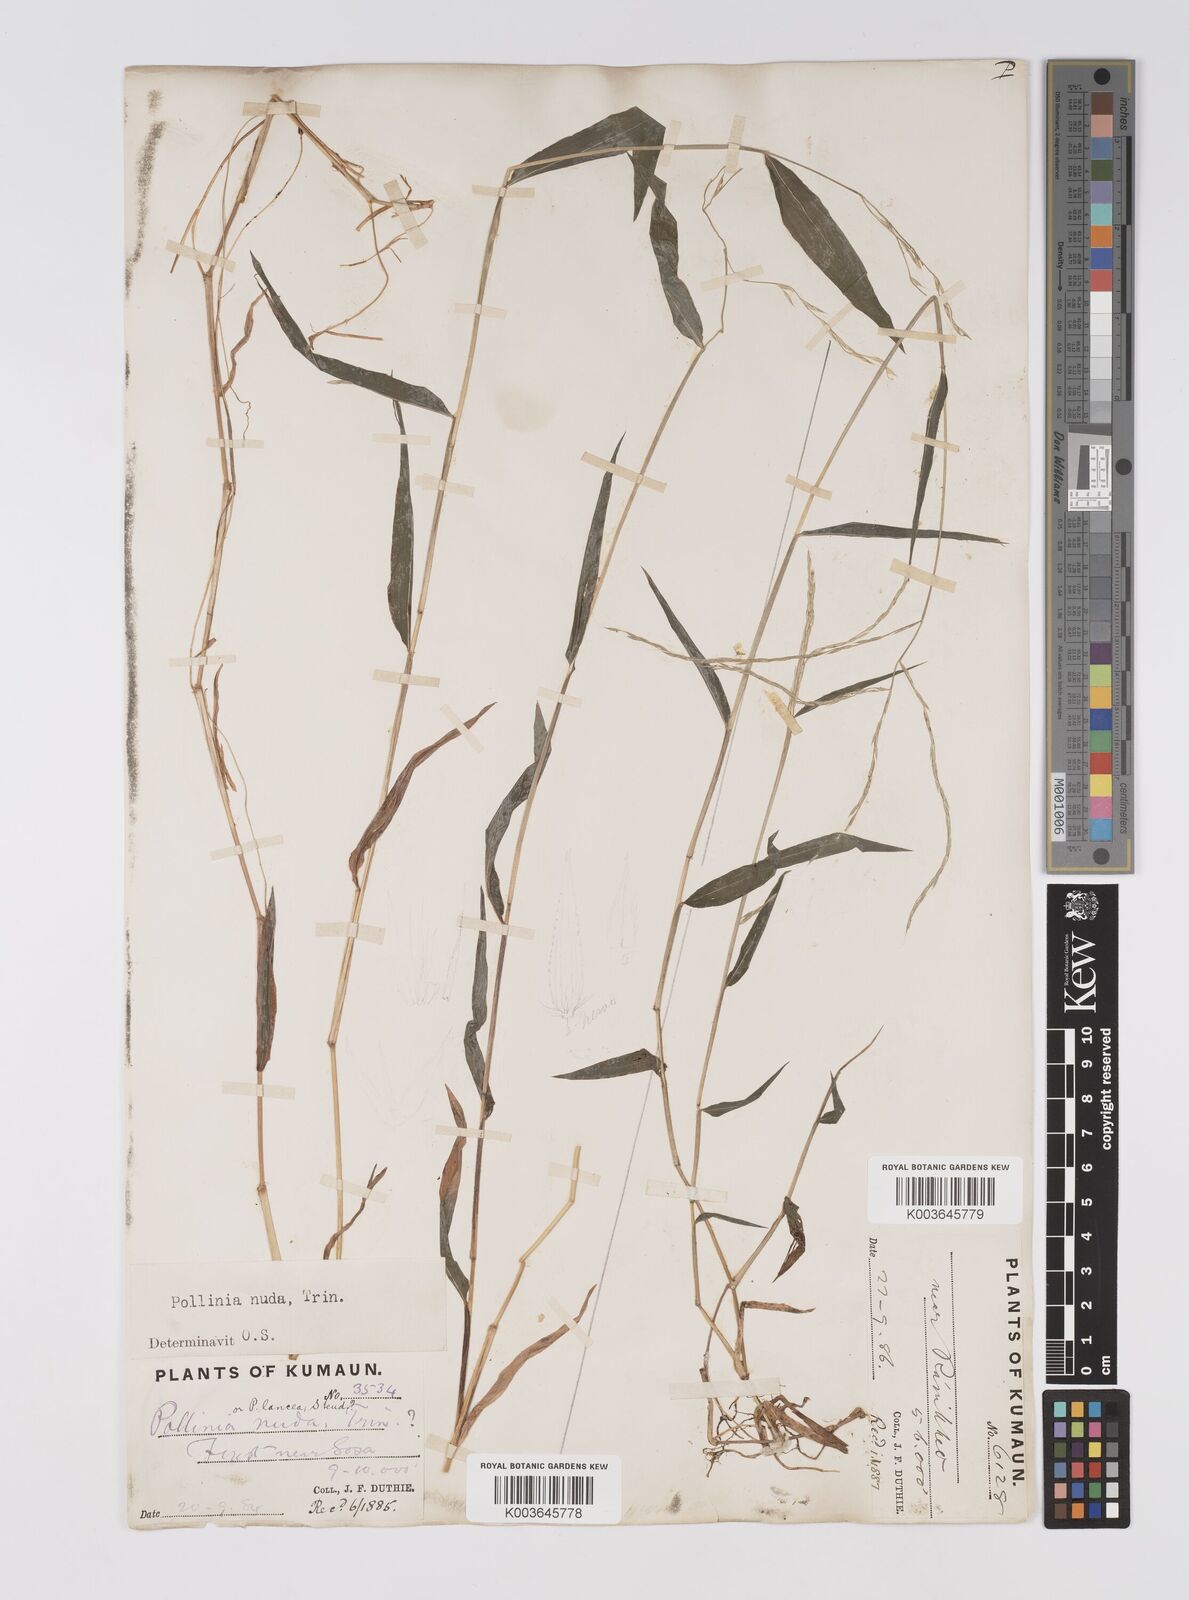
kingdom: Plantae
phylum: Tracheophyta
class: Liliopsida
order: Poales
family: Poaceae
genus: Microstegium
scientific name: Microstegium nudum
